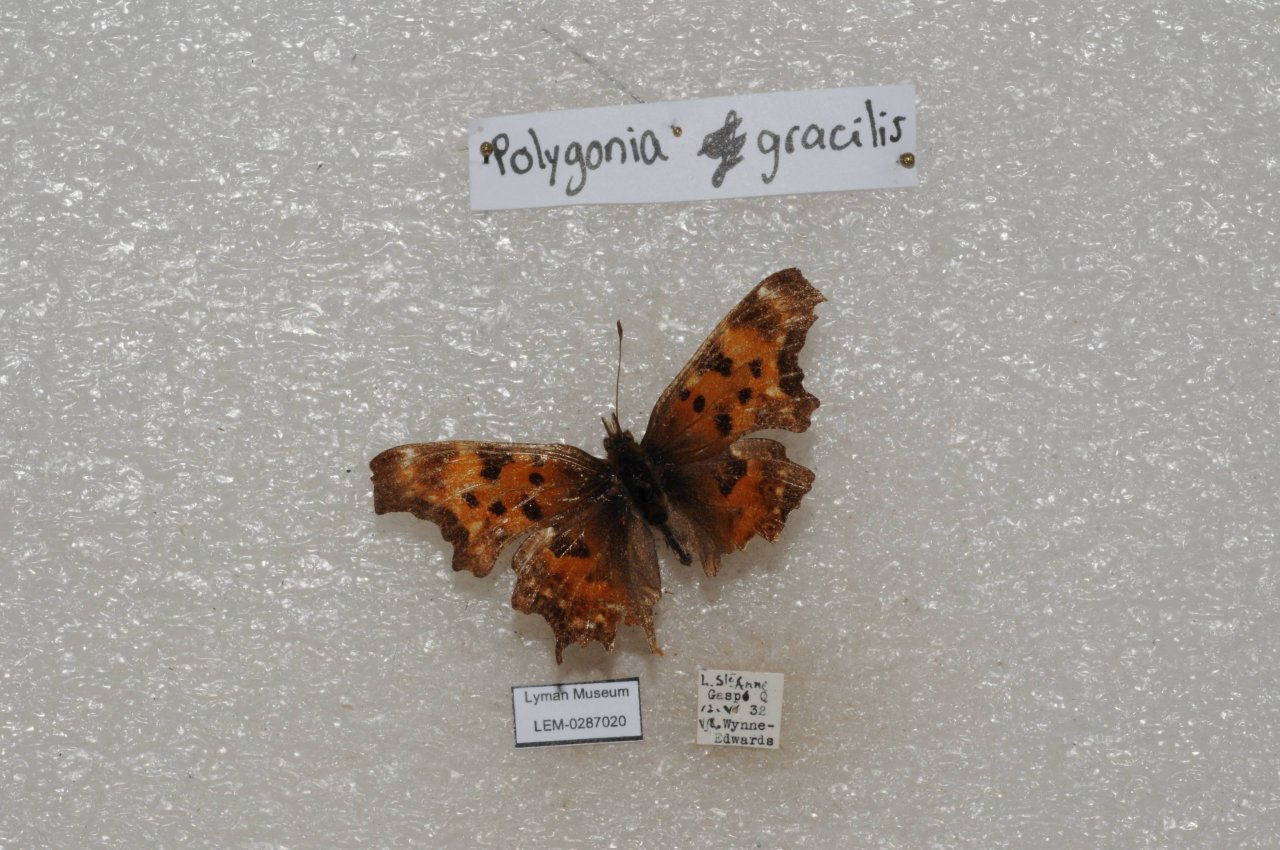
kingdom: Animalia
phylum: Arthropoda
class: Insecta
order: Lepidoptera
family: Nymphalidae
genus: Polygonia
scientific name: Polygonia gracilis
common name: Hoary Comma
